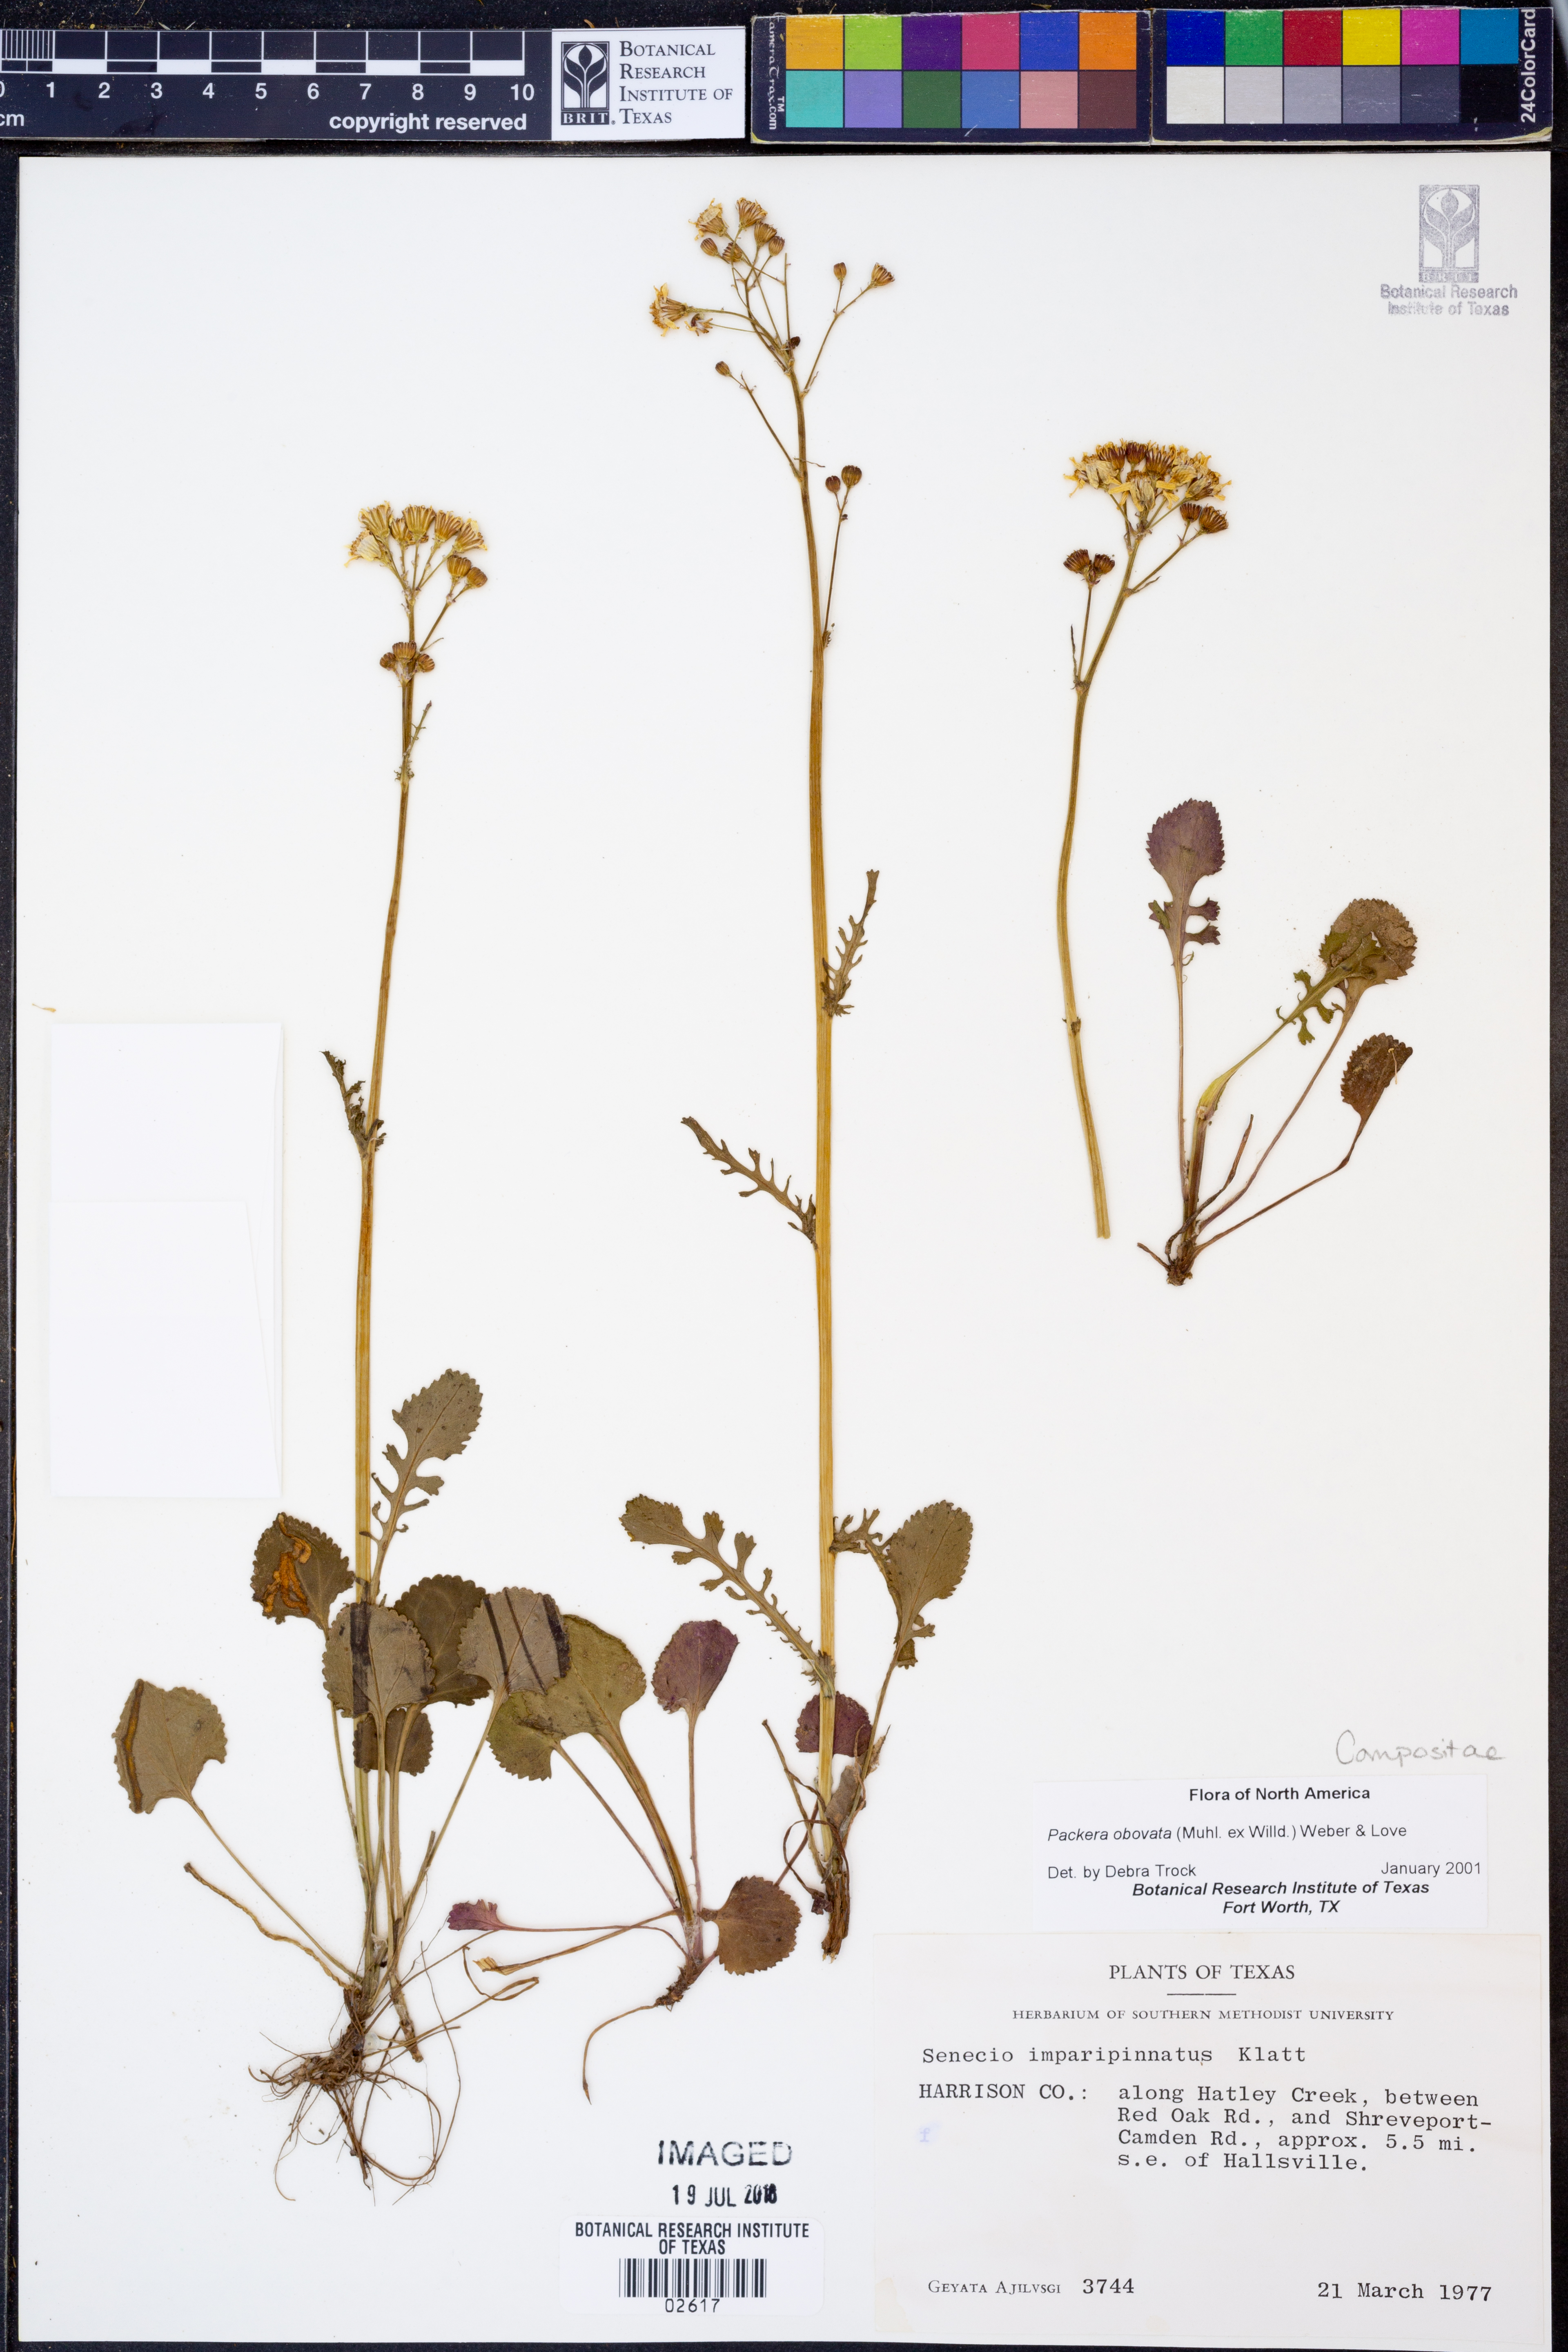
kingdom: Plantae
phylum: Tracheophyta
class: Magnoliopsida
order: Asterales
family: Asteraceae
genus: Packera
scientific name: Packera obovata
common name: Round-leaf ragwort
